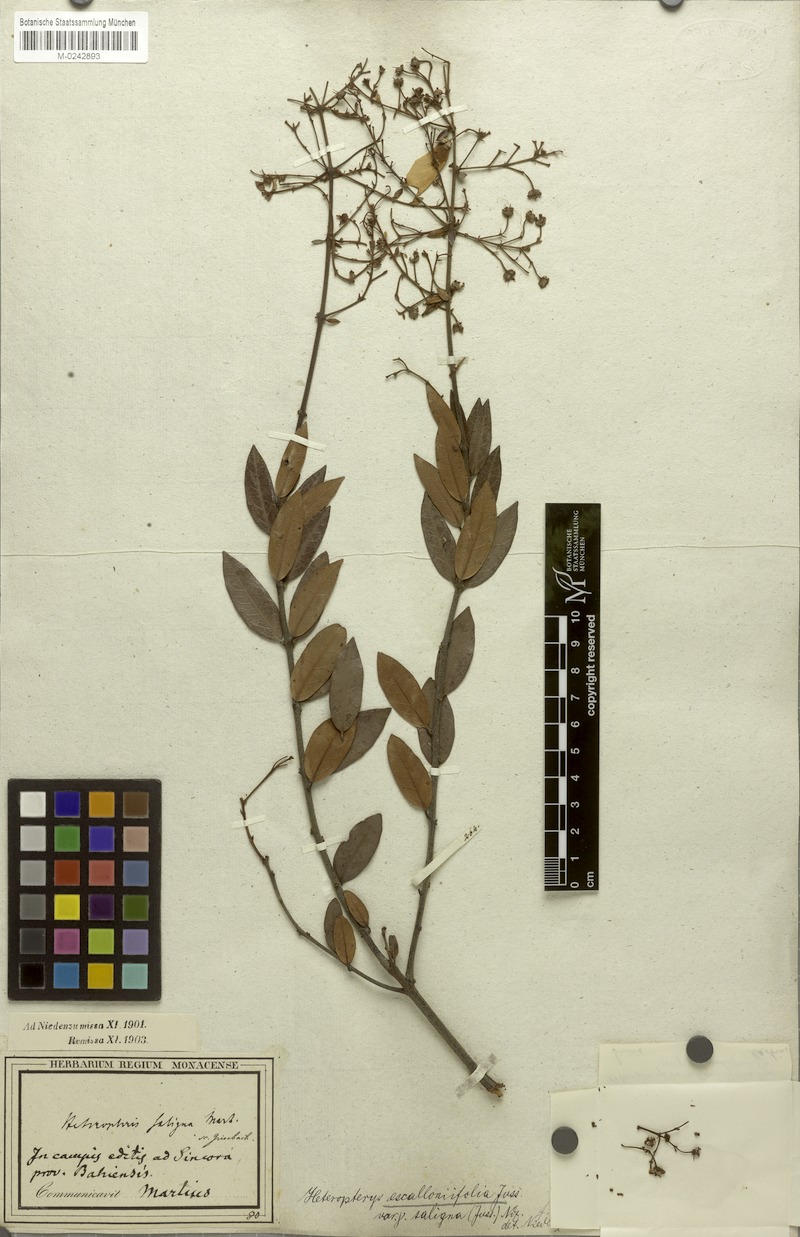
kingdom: Plantae
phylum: Tracheophyta
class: Magnoliopsida
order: Malpighiales
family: Malpighiaceae
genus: Heteropterys
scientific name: Heteropterys escalloniifolia
